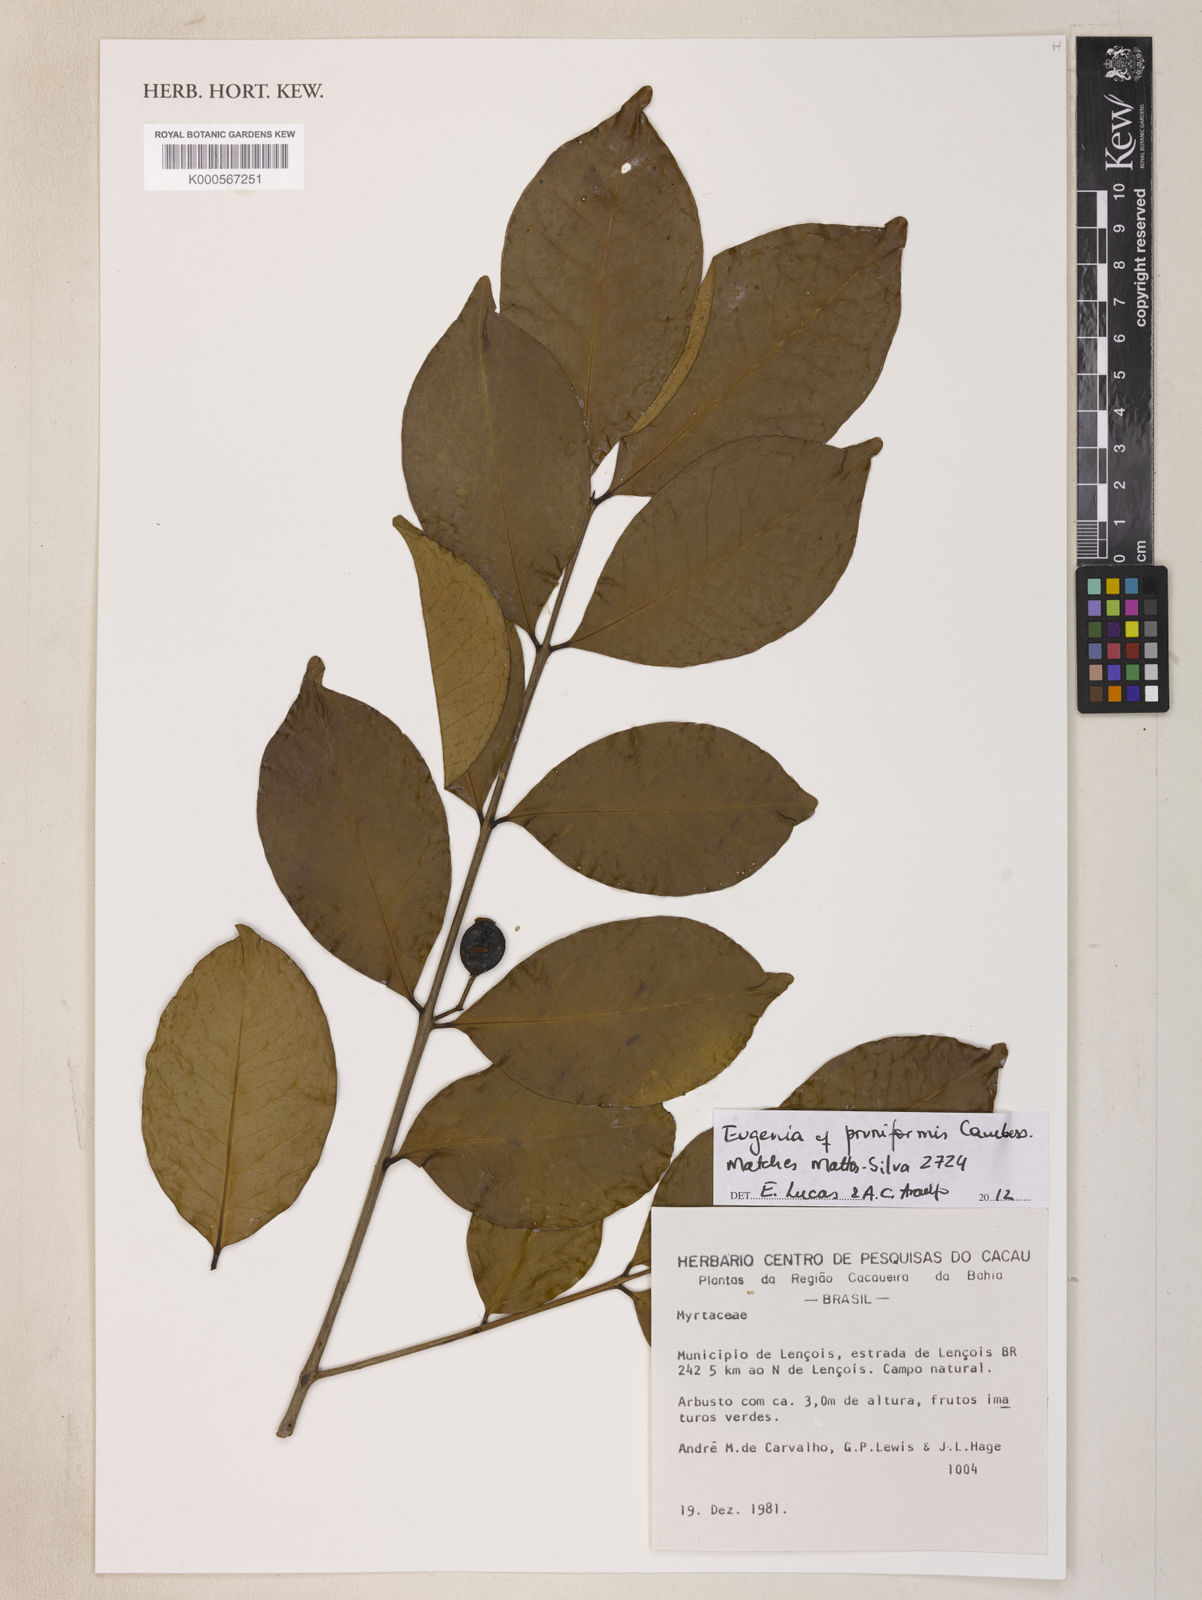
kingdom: Plantae
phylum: Tracheophyta
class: Magnoliopsida
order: Myrtales
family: Myrtaceae
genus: Eugenia
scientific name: Eugenia pruniformis
